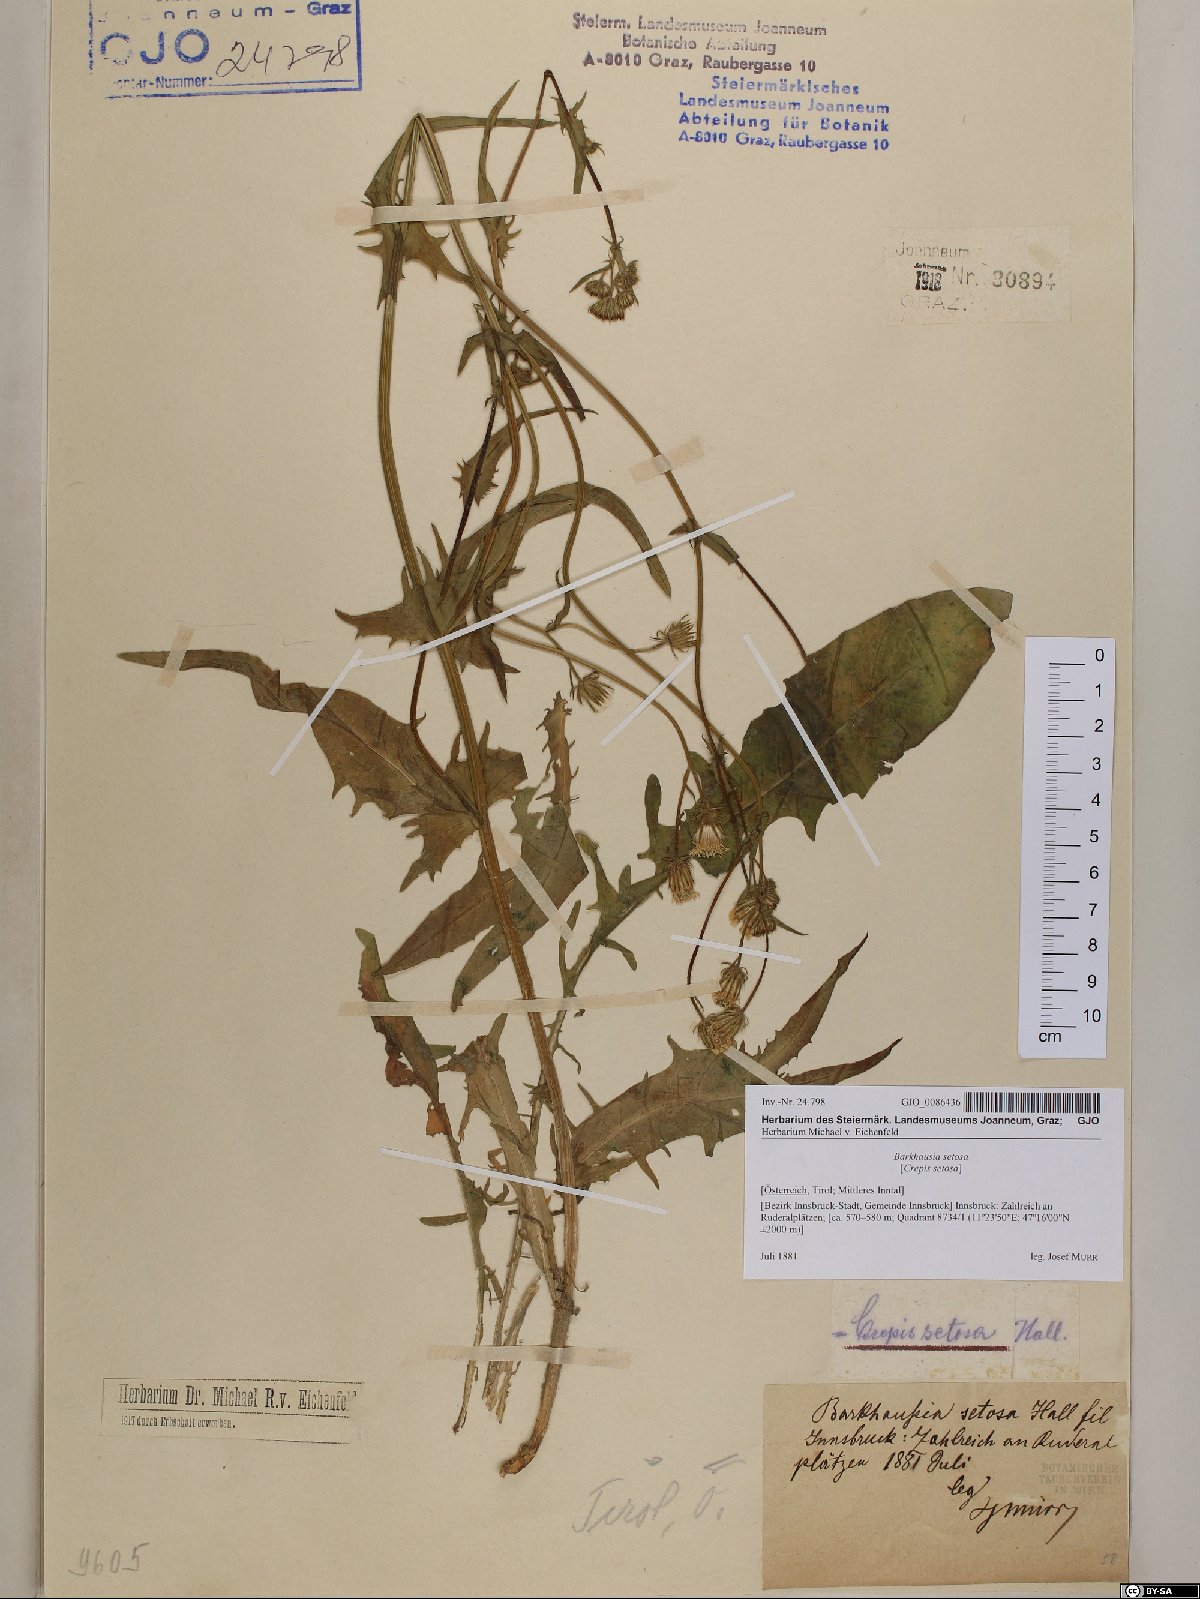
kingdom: Plantae
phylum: Tracheophyta
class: Magnoliopsida
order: Asterales
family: Asteraceae
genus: Crepis
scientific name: Crepis setosa
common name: Bristly hawk's-beard
